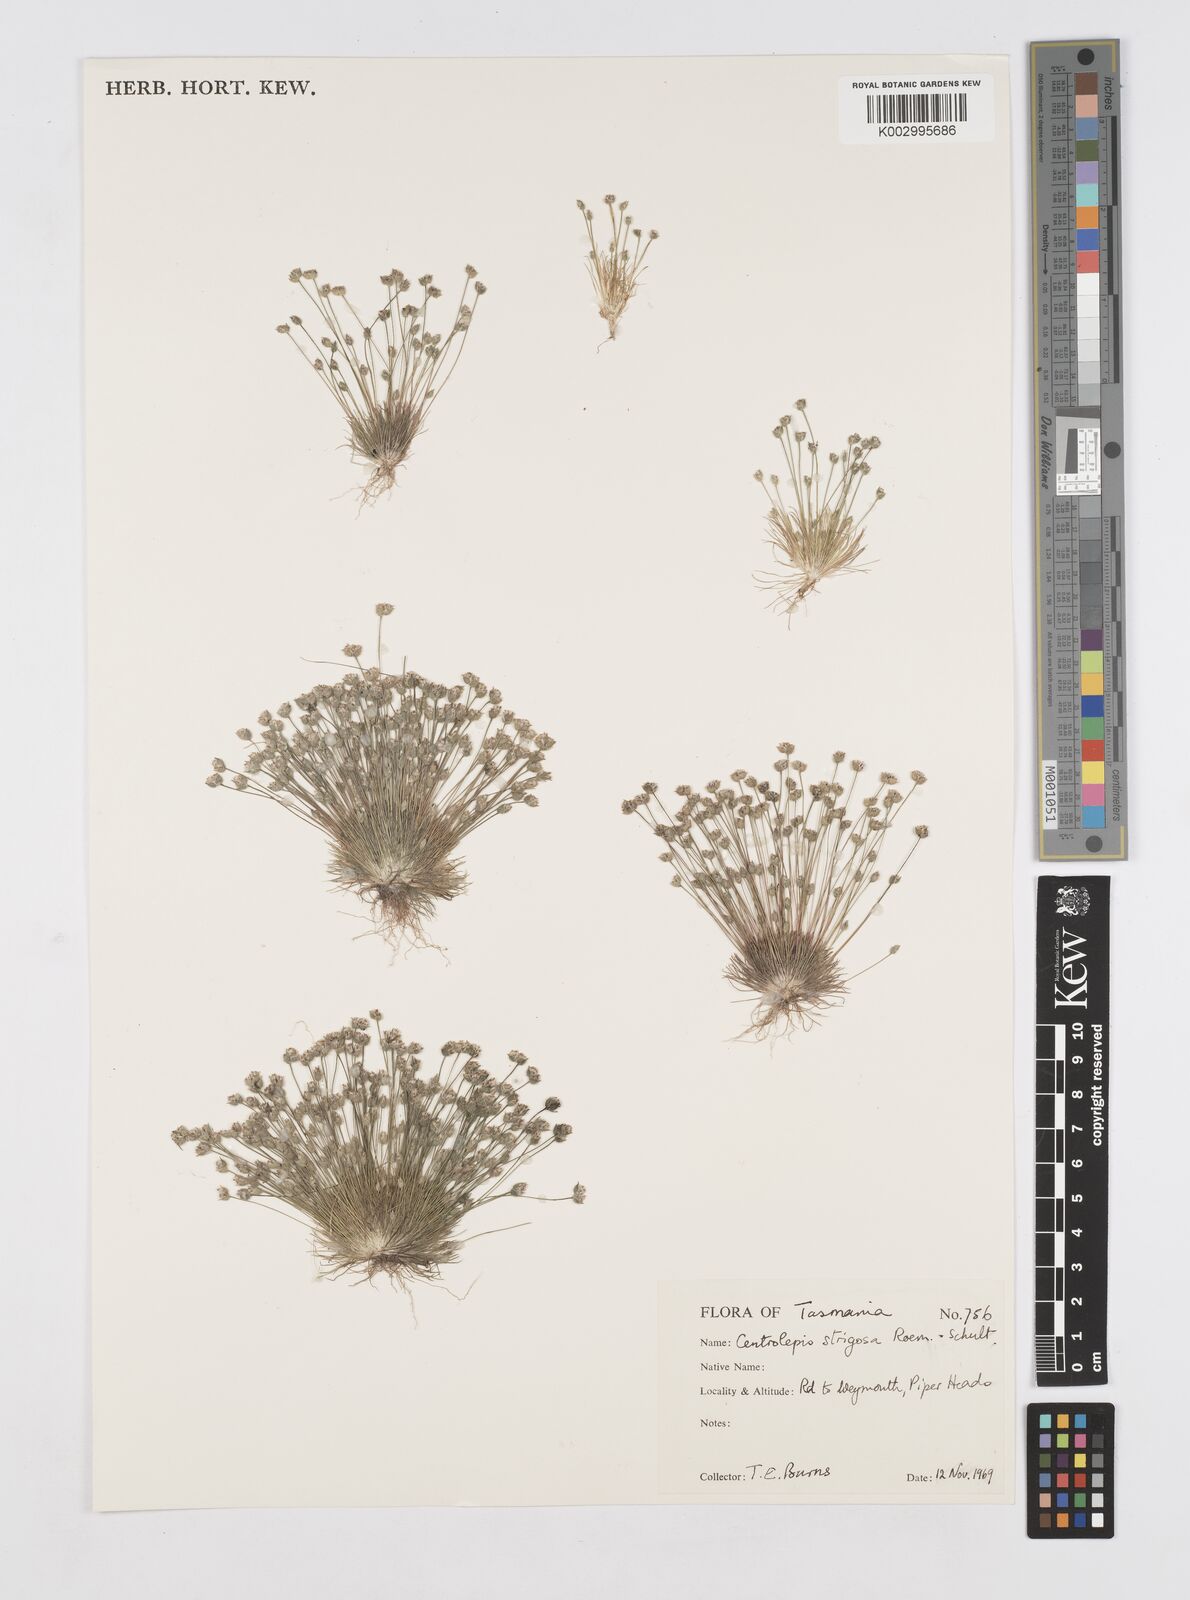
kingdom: Plantae
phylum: Tracheophyta
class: Liliopsida
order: Poales
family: Restionaceae
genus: Centrolepis
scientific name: Centrolepis strigosa
